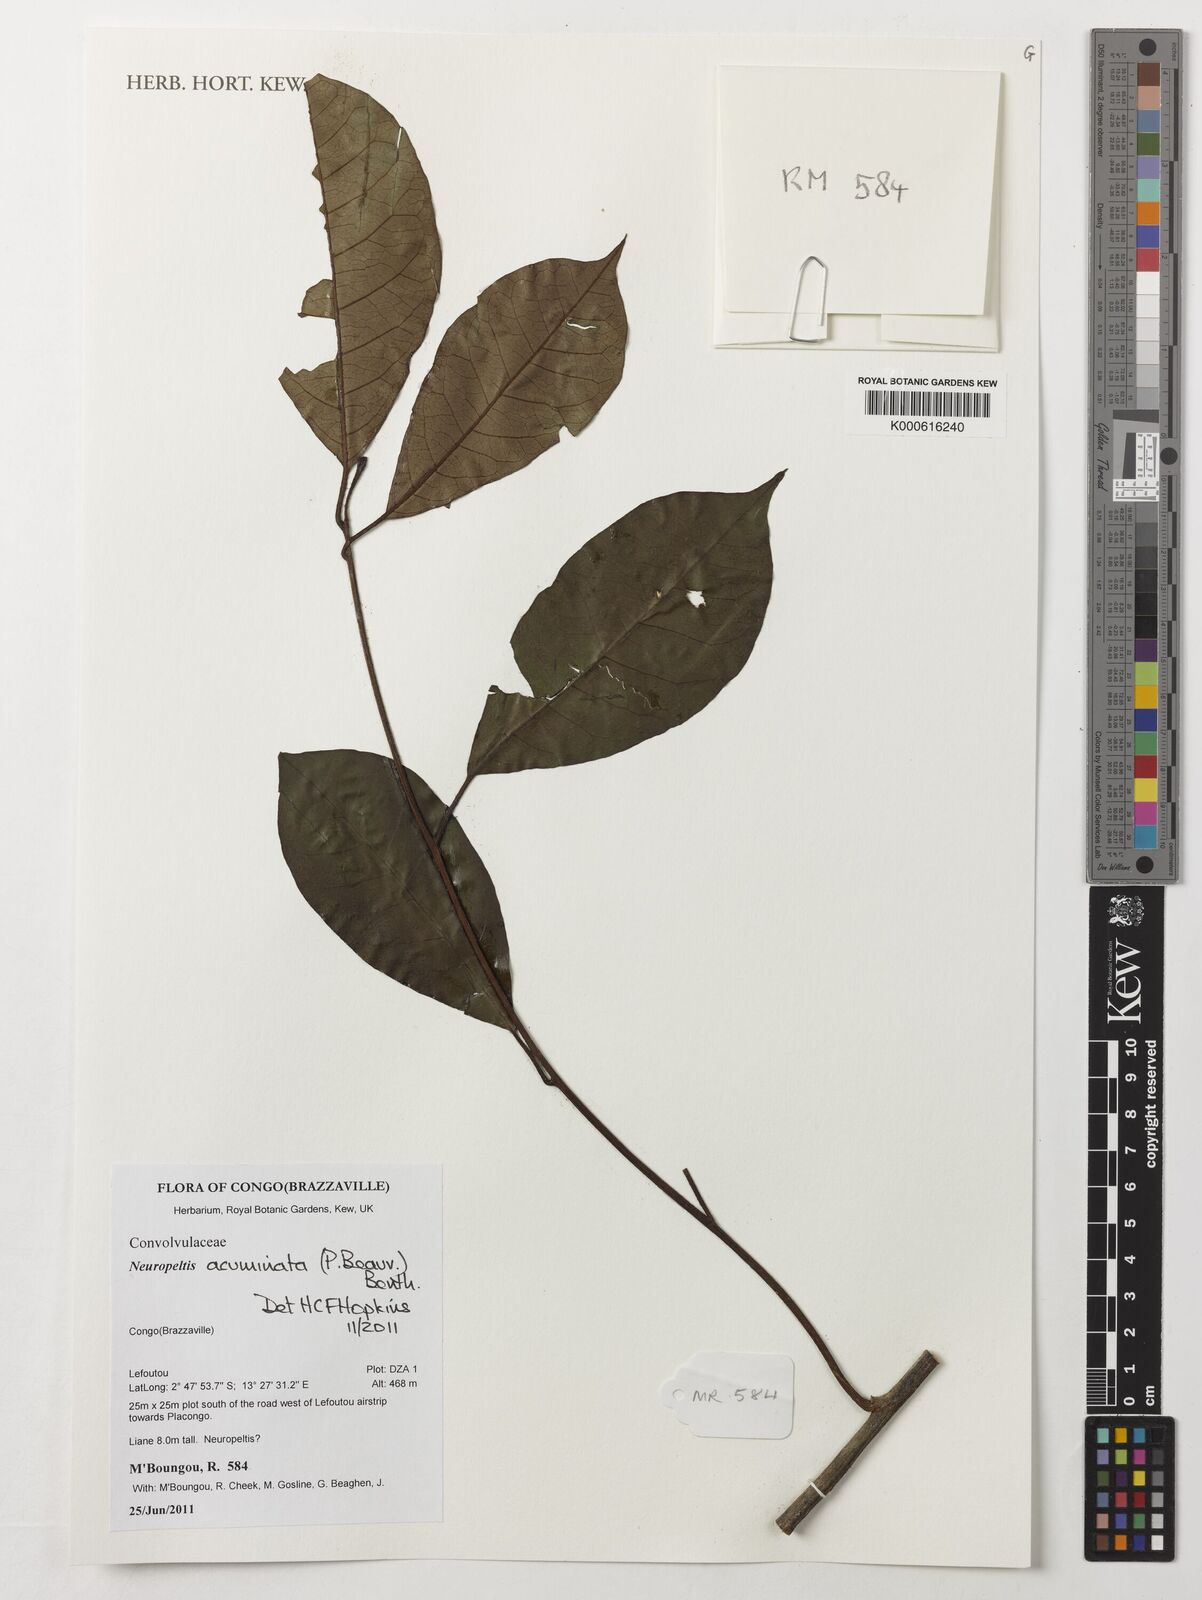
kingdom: Plantae
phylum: Tracheophyta
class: Magnoliopsida
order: Solanales
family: Convolvulaceae
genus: Neuropeltis
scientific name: Neuropeltis acuminata
